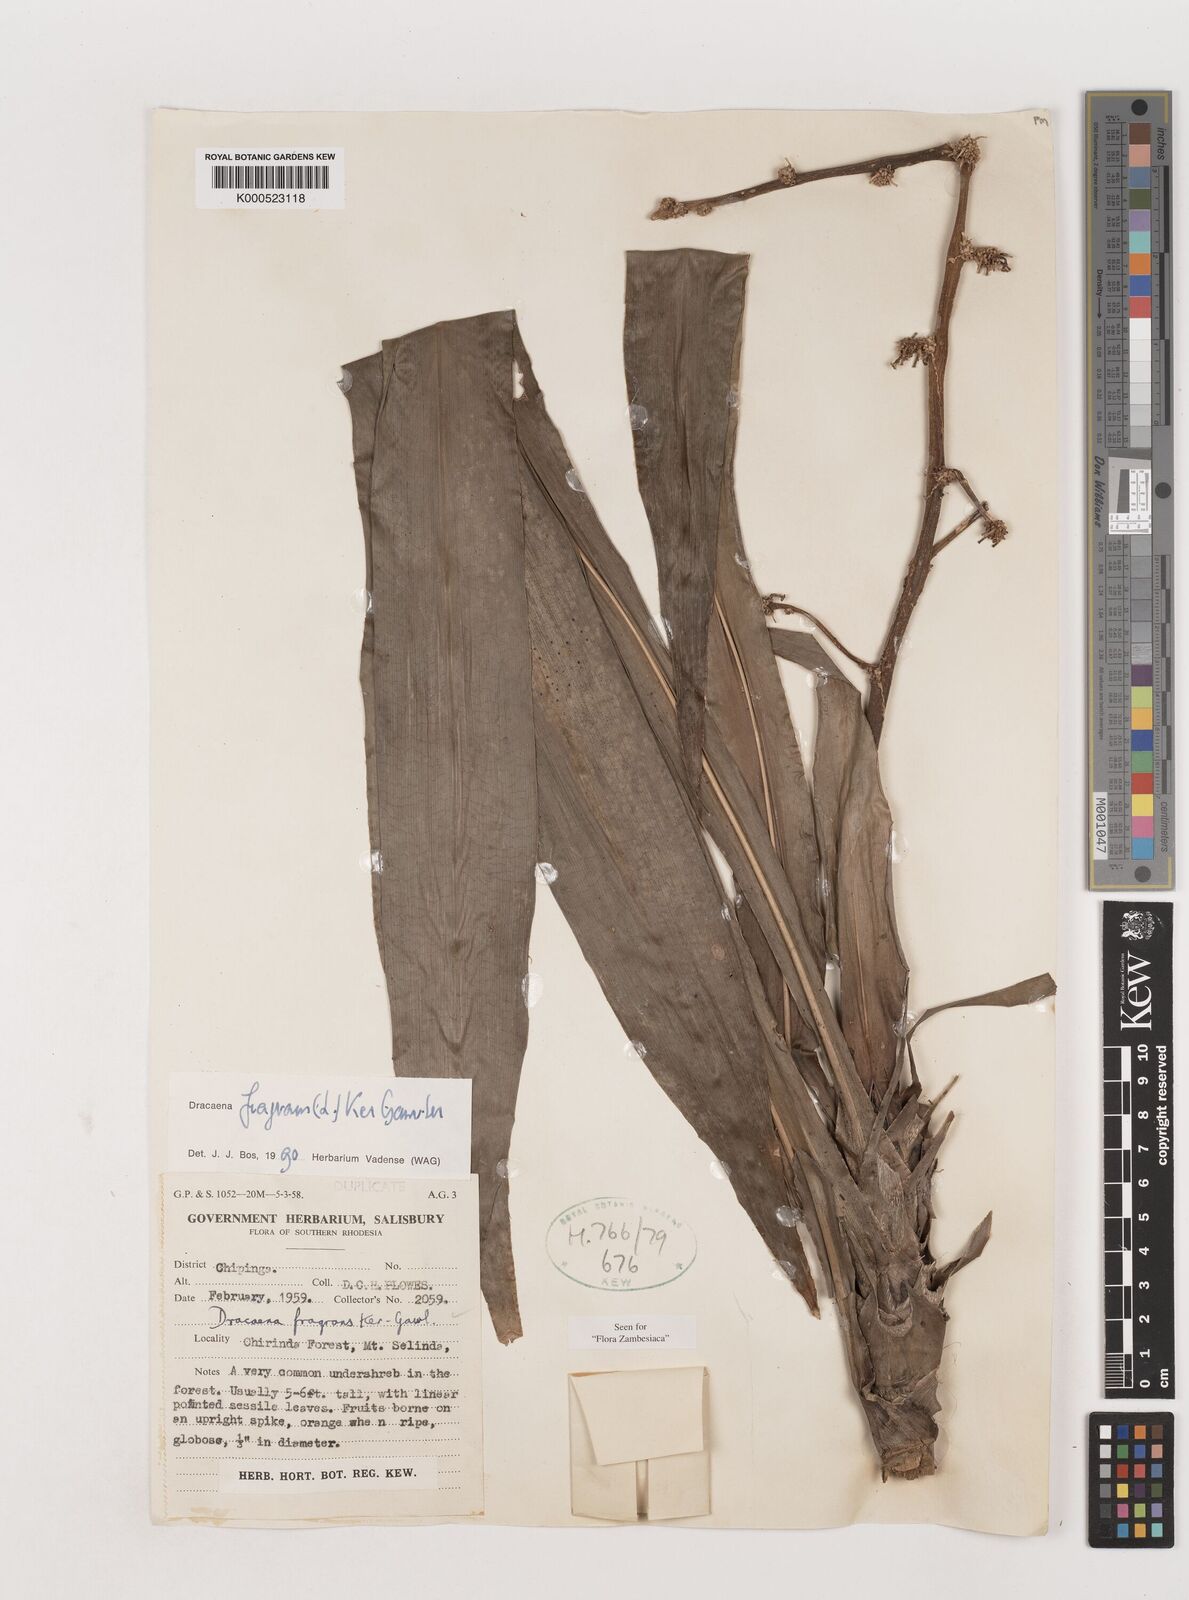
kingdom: Plantae
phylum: Tracheophyta
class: Liliopsida
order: Asparagales
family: Asparagaceae
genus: Dracaena
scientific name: Dracaena fragrans
